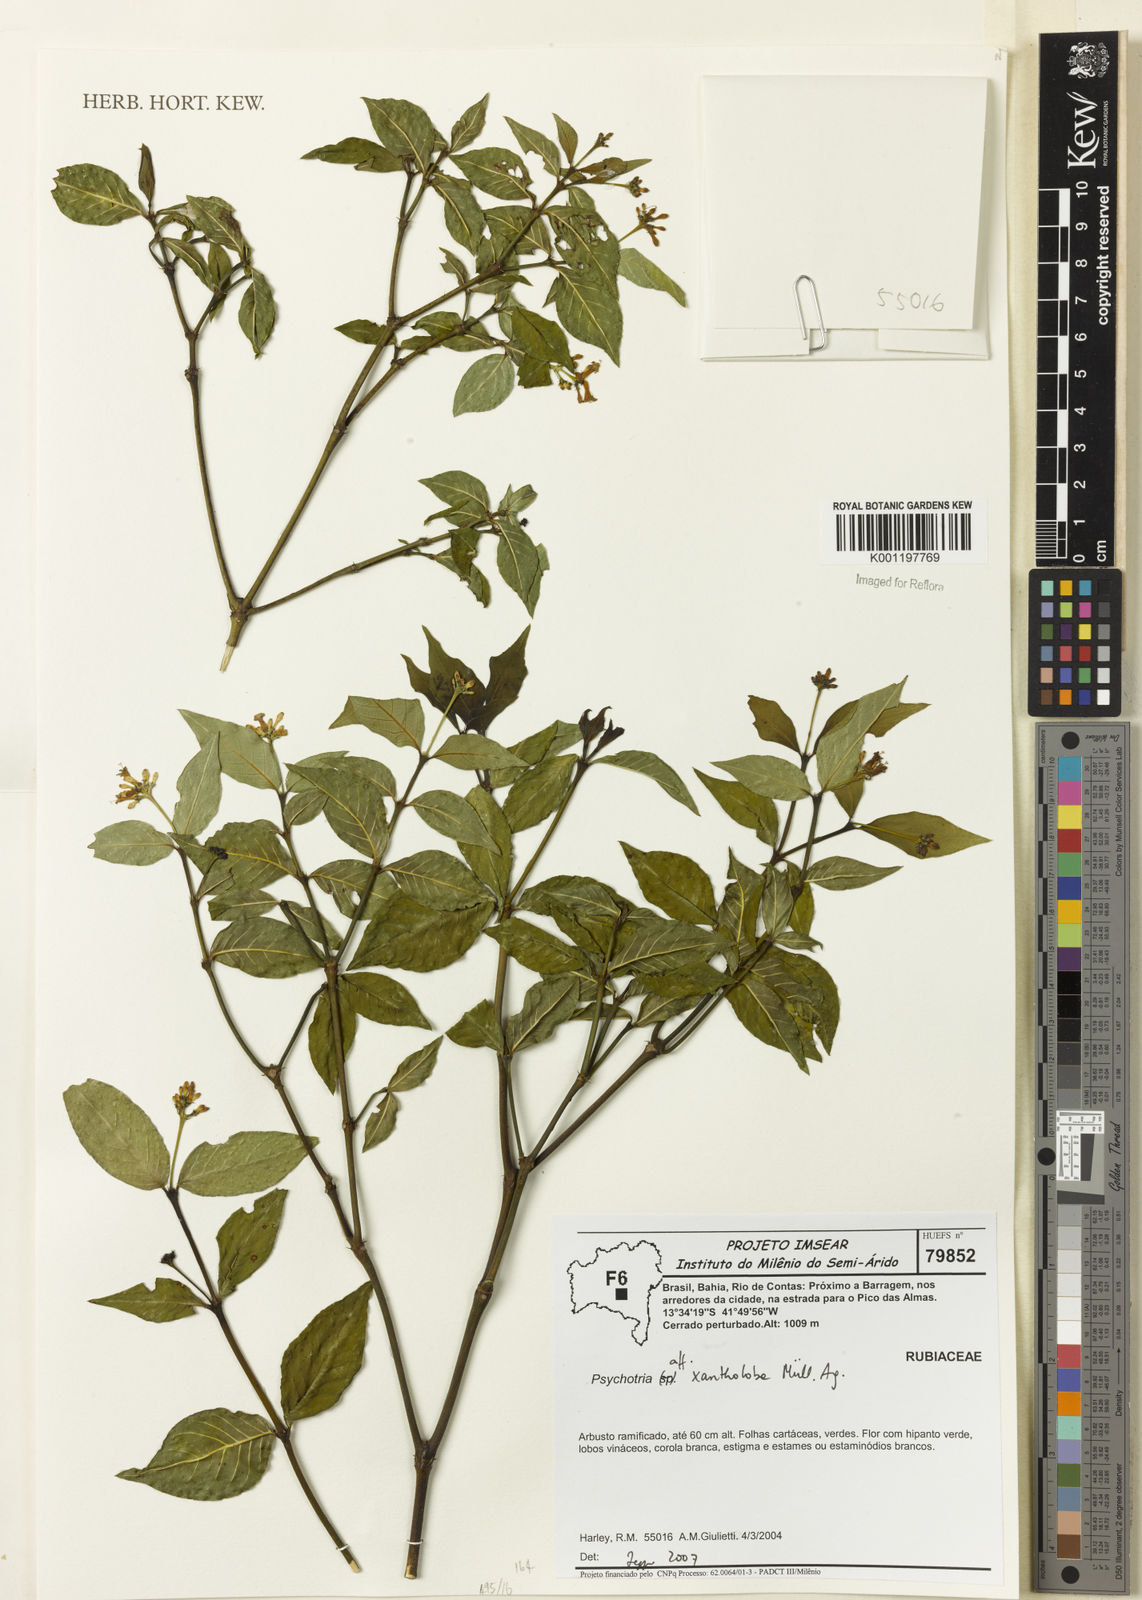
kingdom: Plantae
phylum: Tracheophyta
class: Magnoliopsida
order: Gentianales
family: Rubiaceae
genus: Psychotria
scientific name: Psychotria
